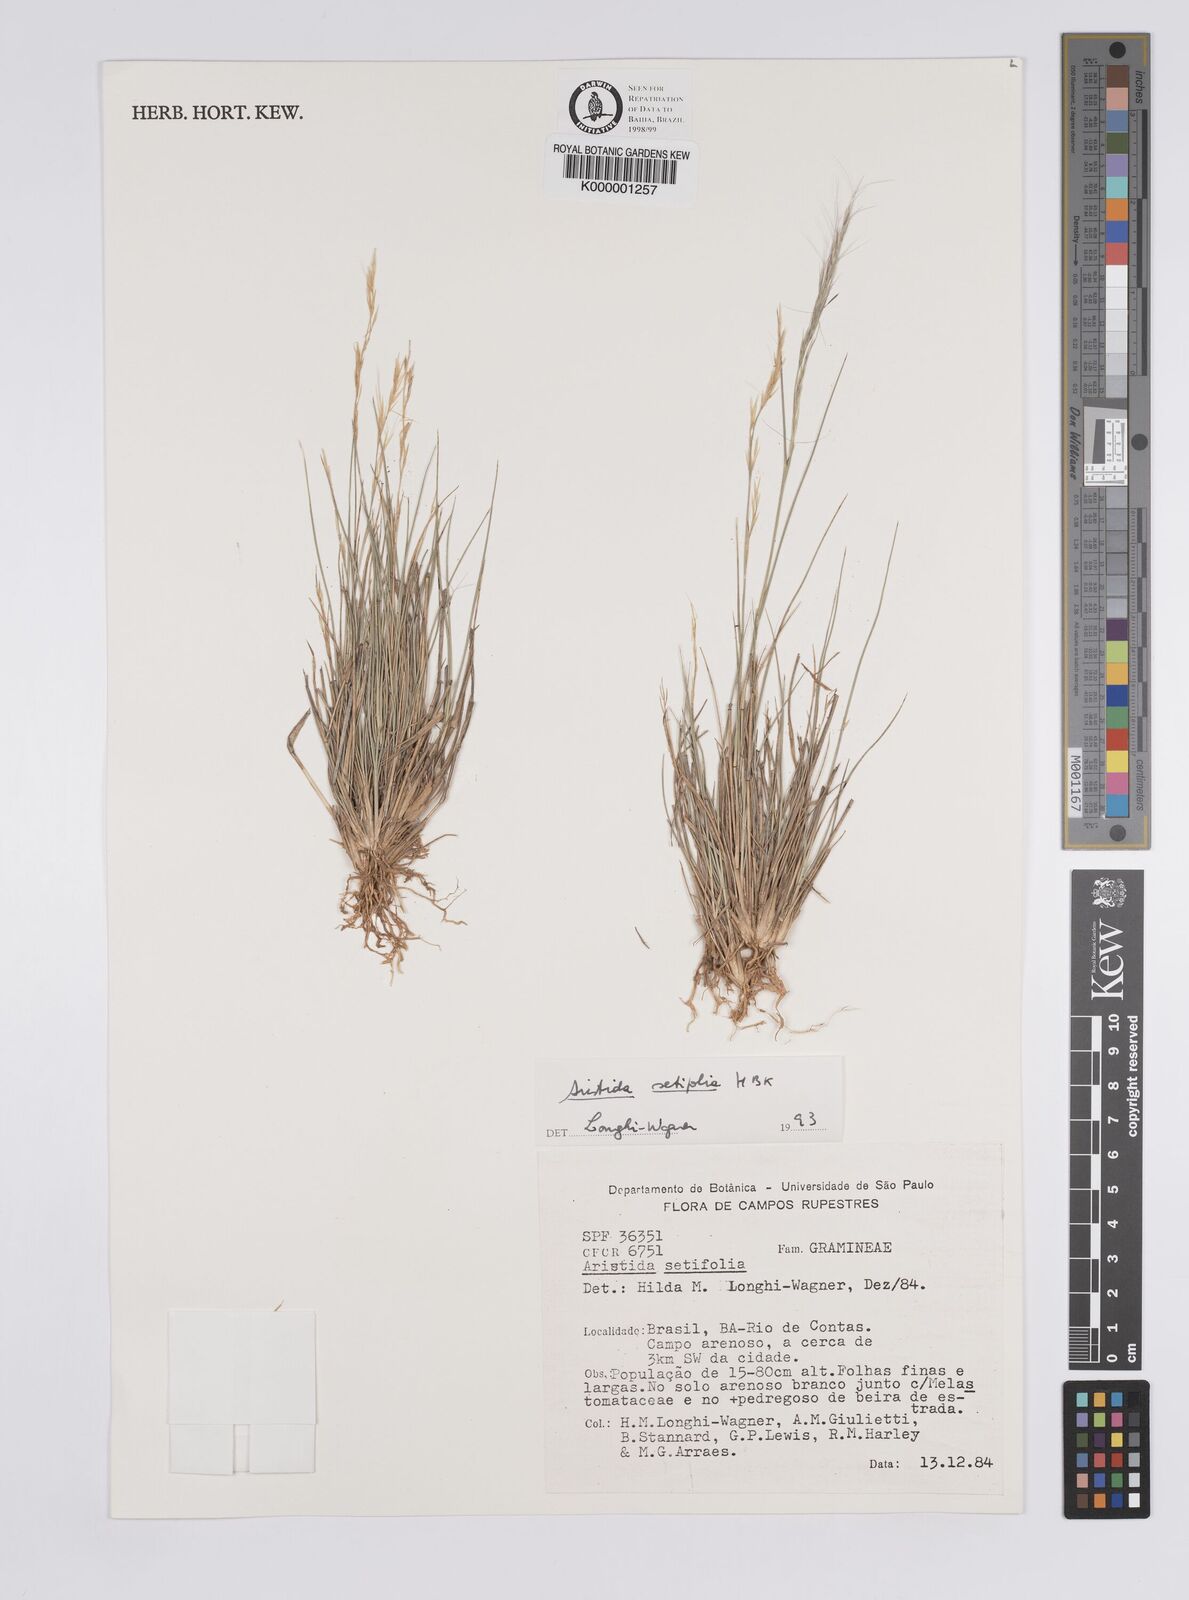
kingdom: Plantae
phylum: Tracheophyta
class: Liliopsida
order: Poales
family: Poaceae
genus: Aristida
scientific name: Aristida setifolia
